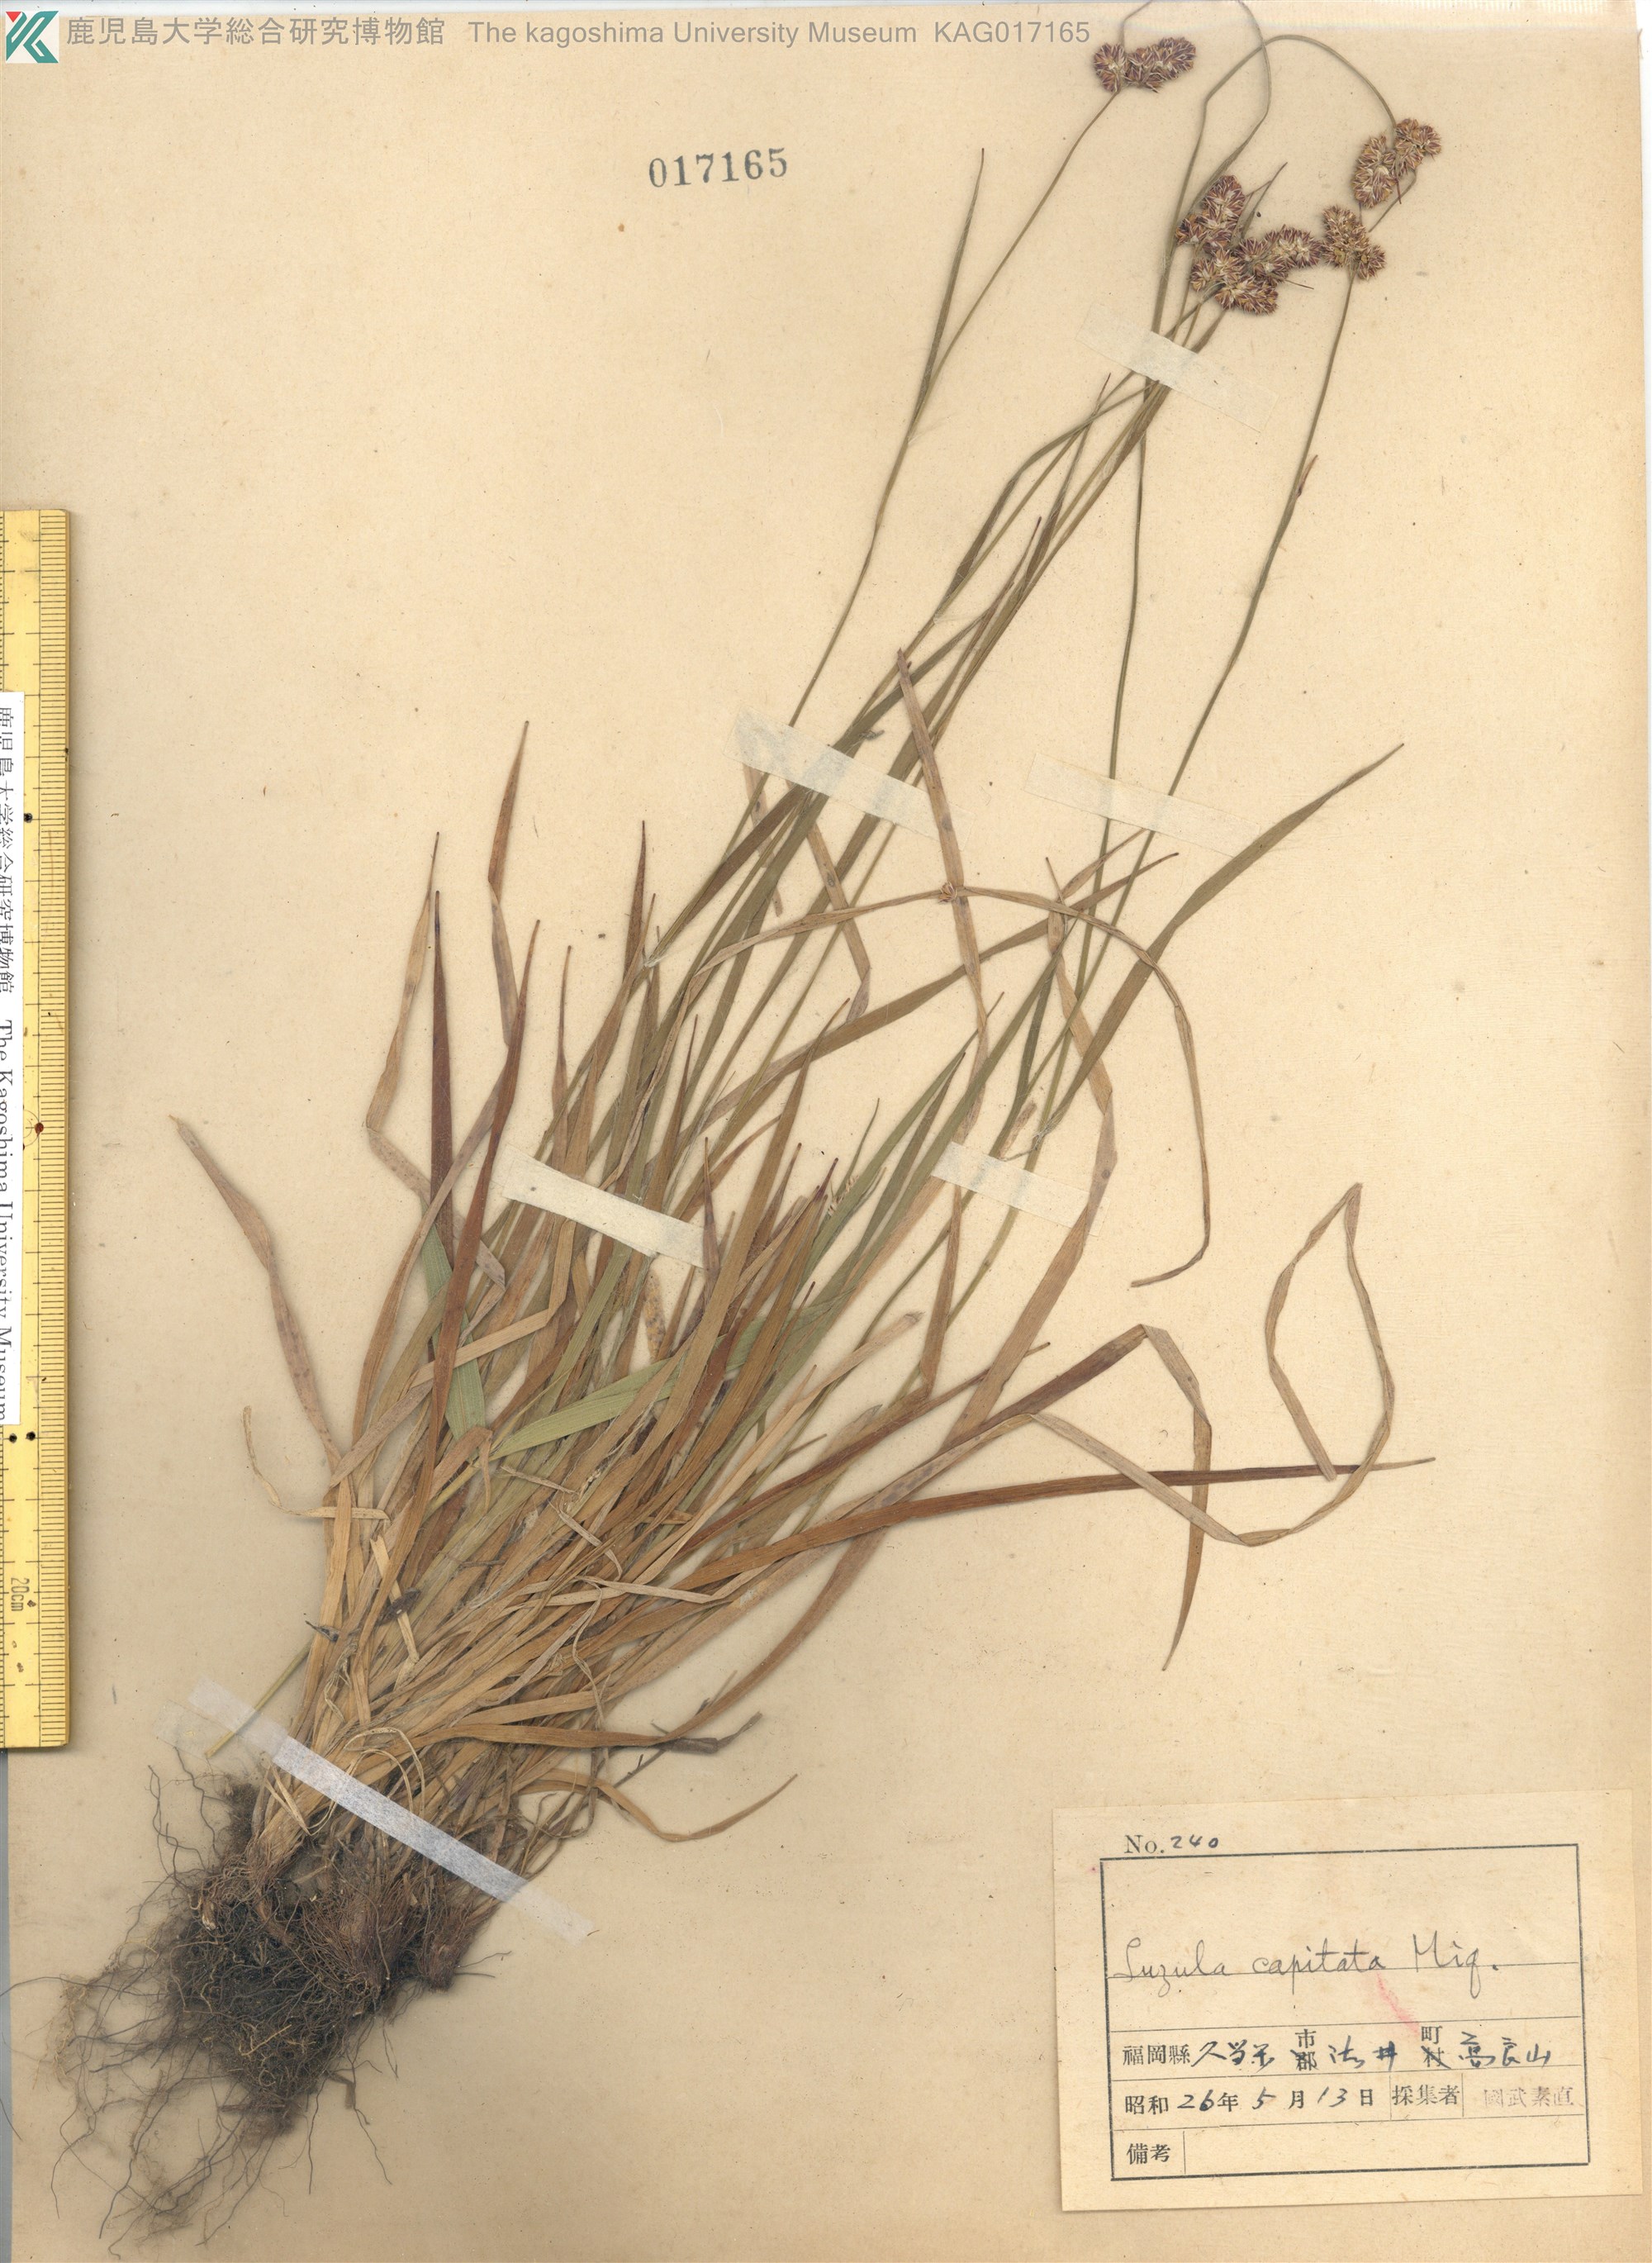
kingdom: Plantae
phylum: Tracheophyta
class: Liliopsida
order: Poales
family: Juncaceae
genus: Luzula
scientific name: Luzula capitata
